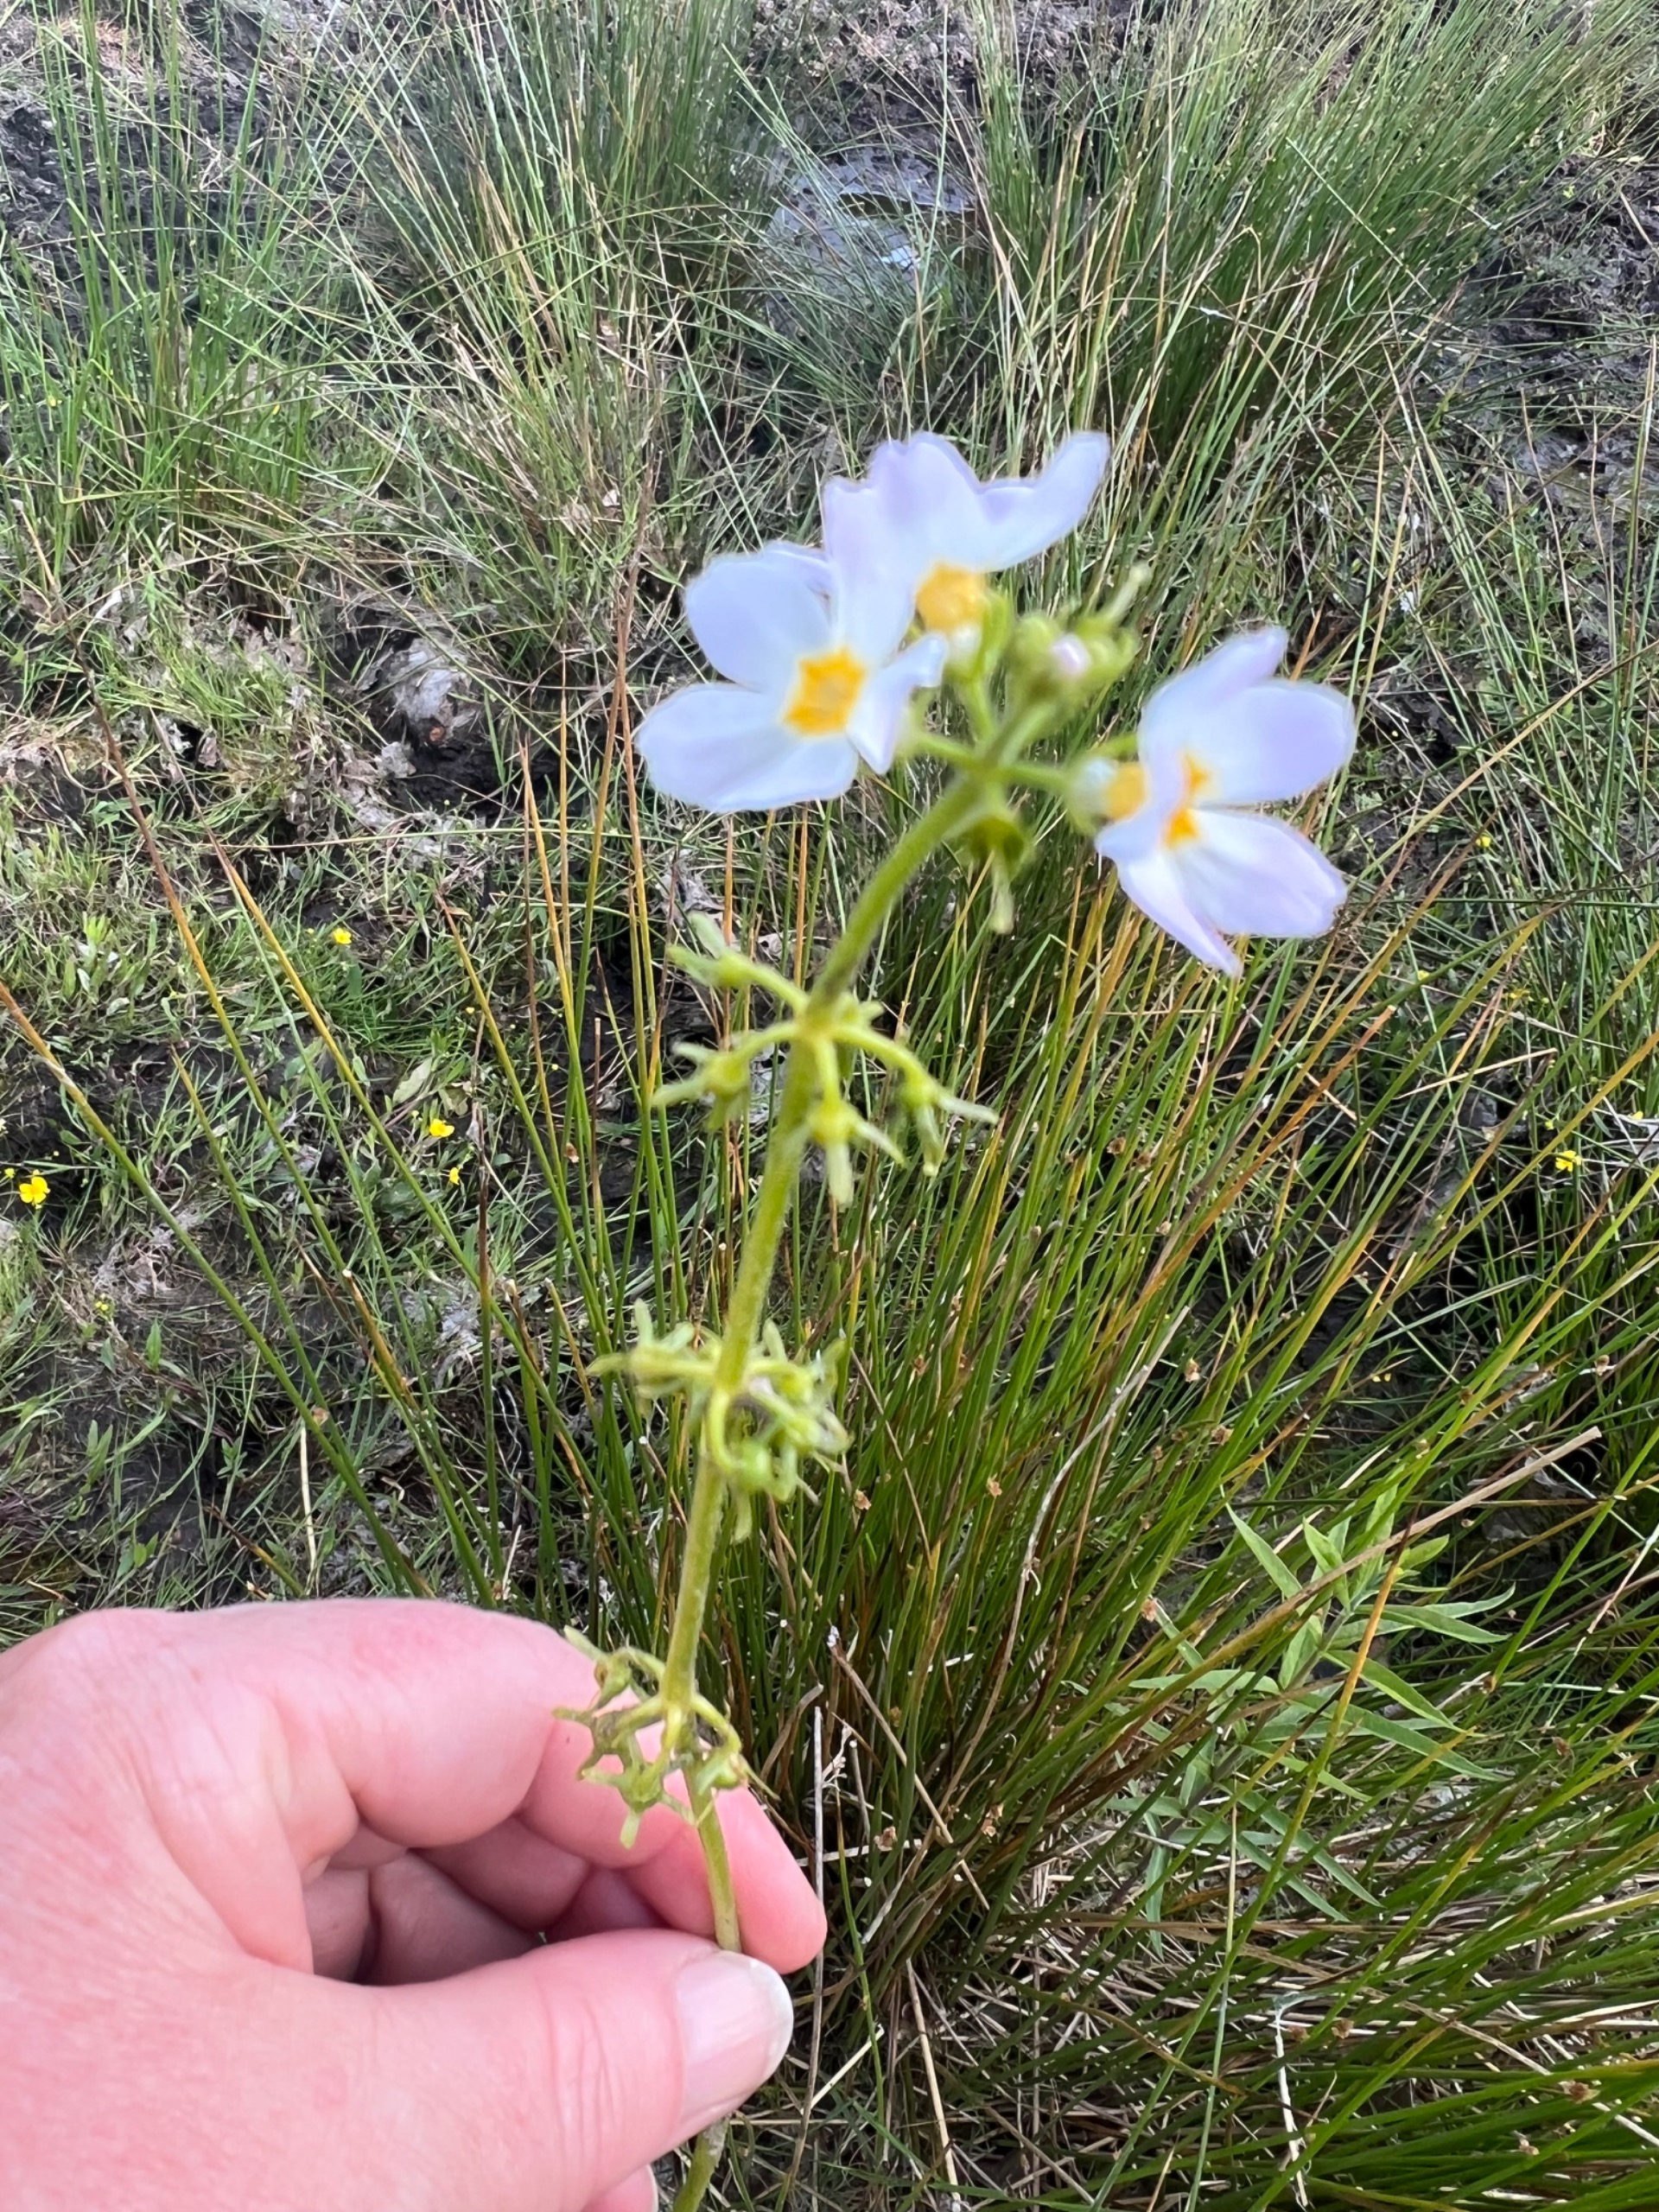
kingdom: Plantae
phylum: Tracheophyta
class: Magnoliopsida
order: Ericales
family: Primulaceae
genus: Hottonia
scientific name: Hottonia palustris
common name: Vandrøllike
